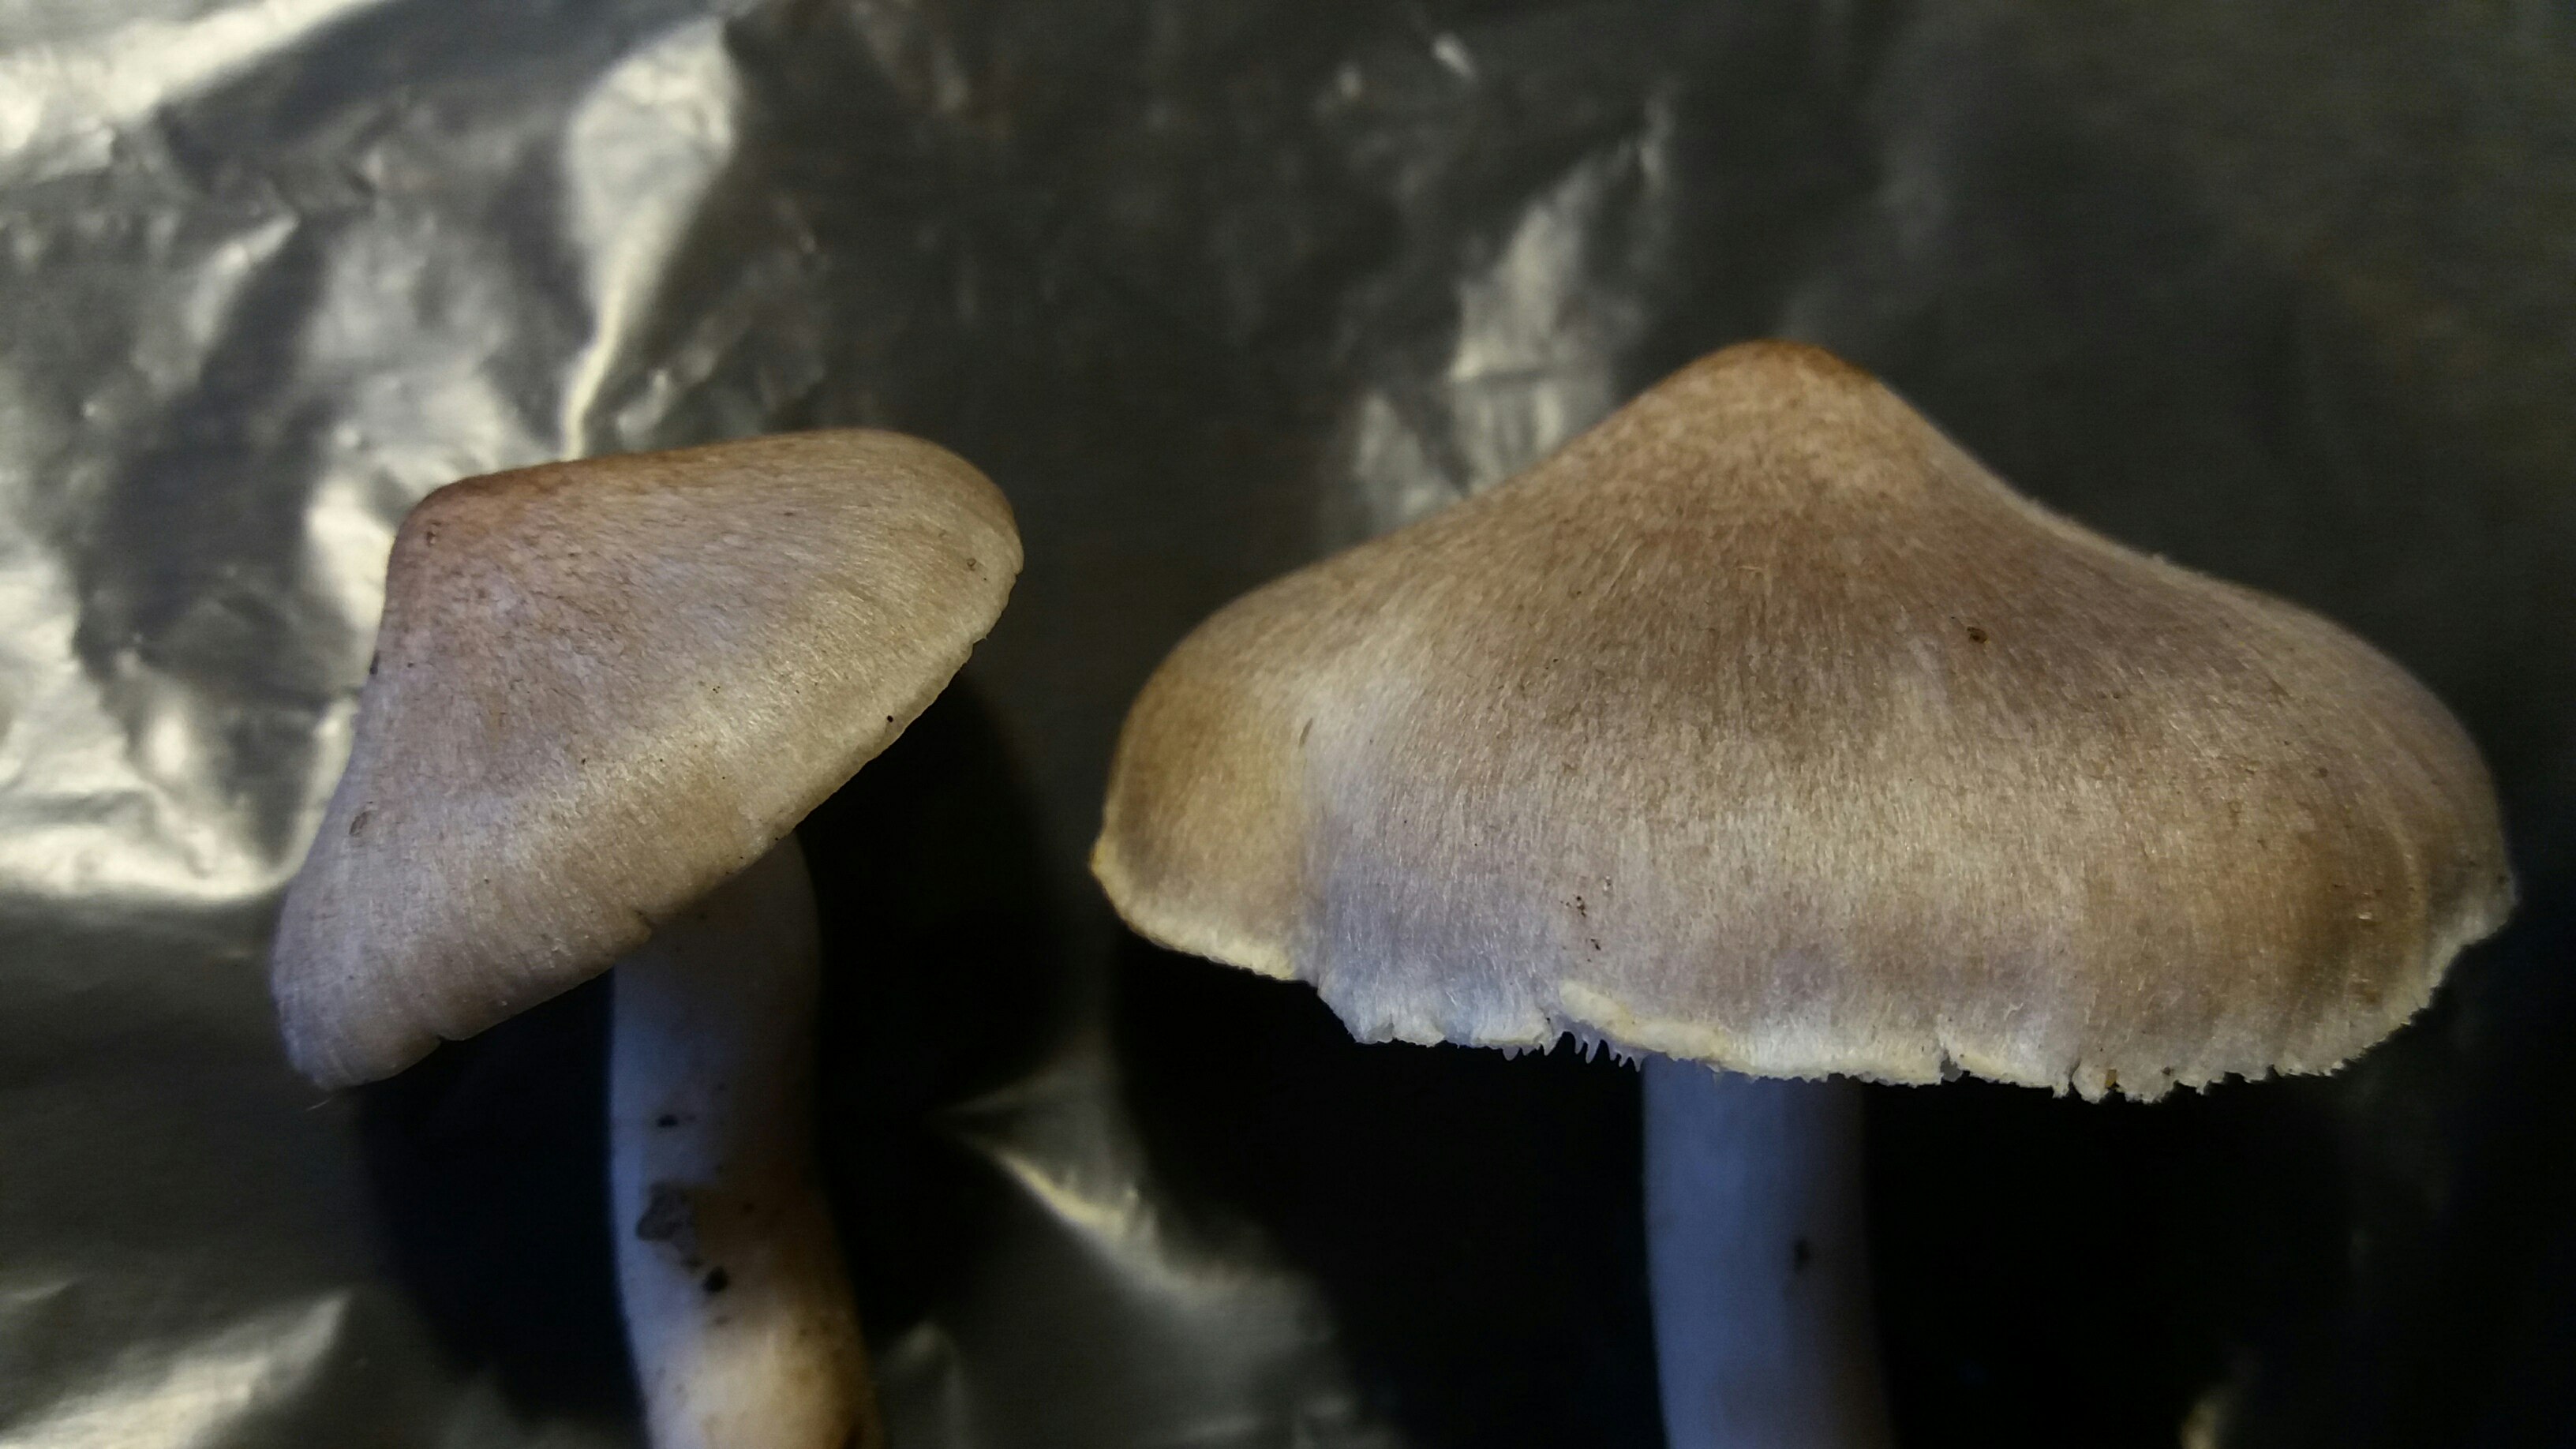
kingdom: Fungi
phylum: Basidiomycota
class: Agaricomycetes
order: Agaricales
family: Tricholomataceae
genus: Tricholoma
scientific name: Tricholoma argyraceum
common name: slør-ridderhat
